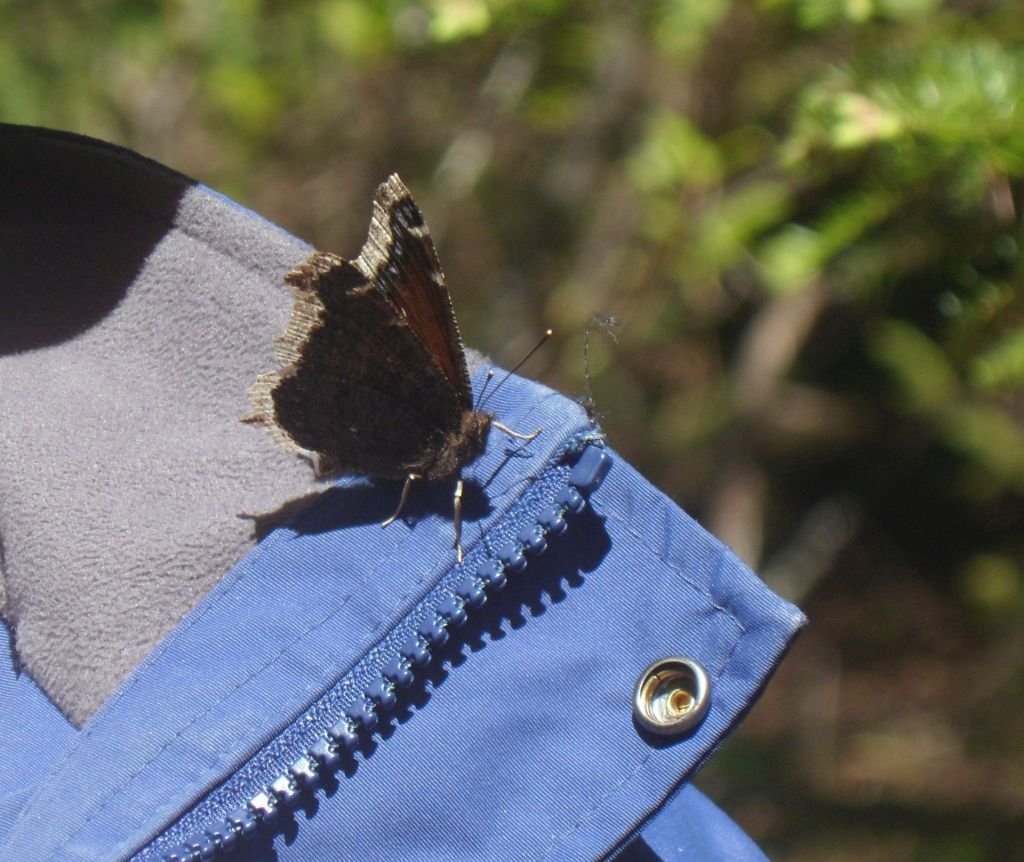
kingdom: Animalia
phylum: Arthropoda
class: Insecta
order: Lepidoptera
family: Nymphalidae
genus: Nymphalis
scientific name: Nymphalis antiopa
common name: Mourning Cloak
